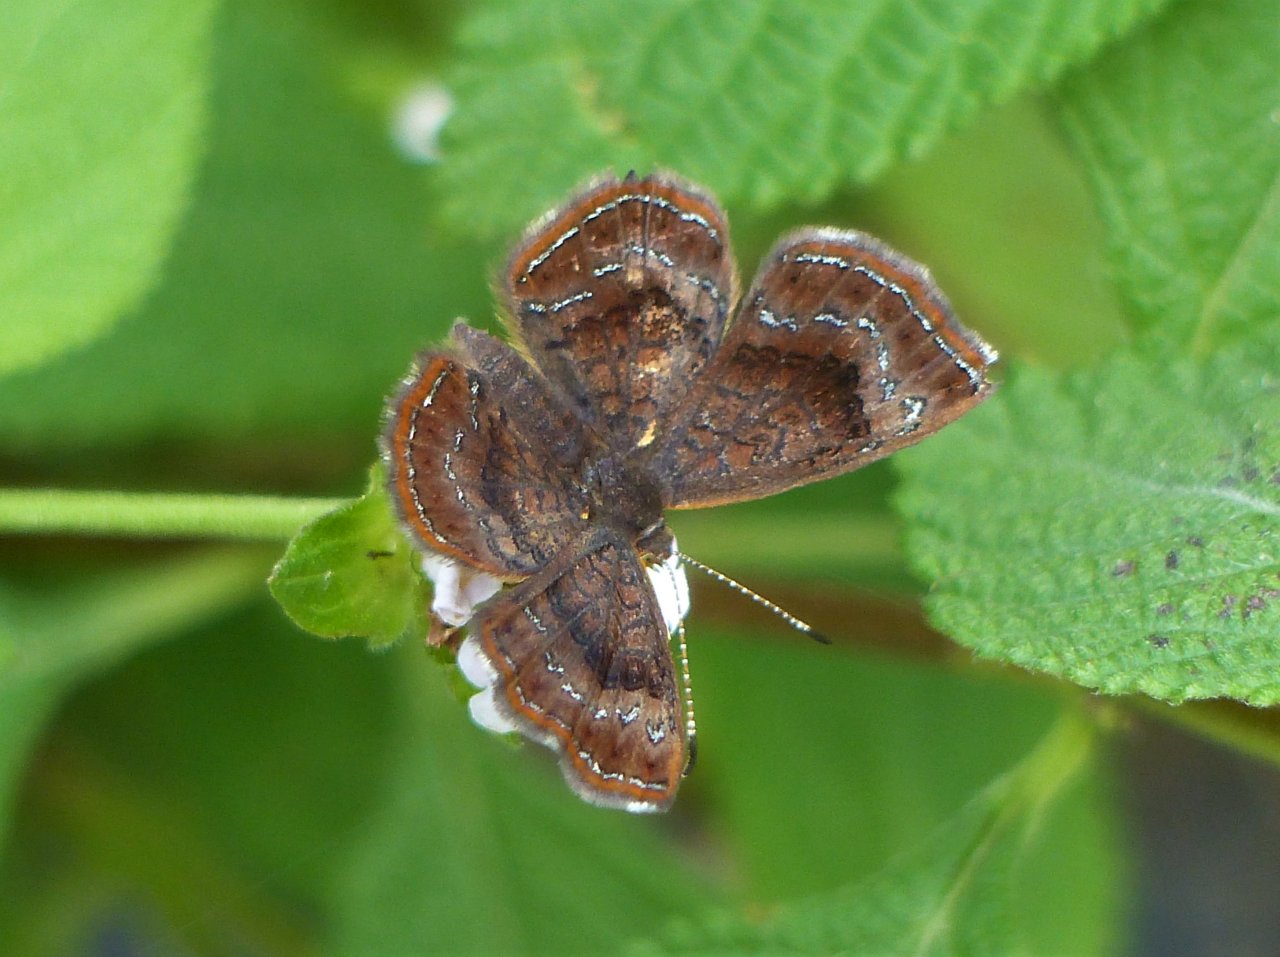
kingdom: Animalia
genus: Calephelis
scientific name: Calephelis perditalis
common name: Rounded Metalmark
